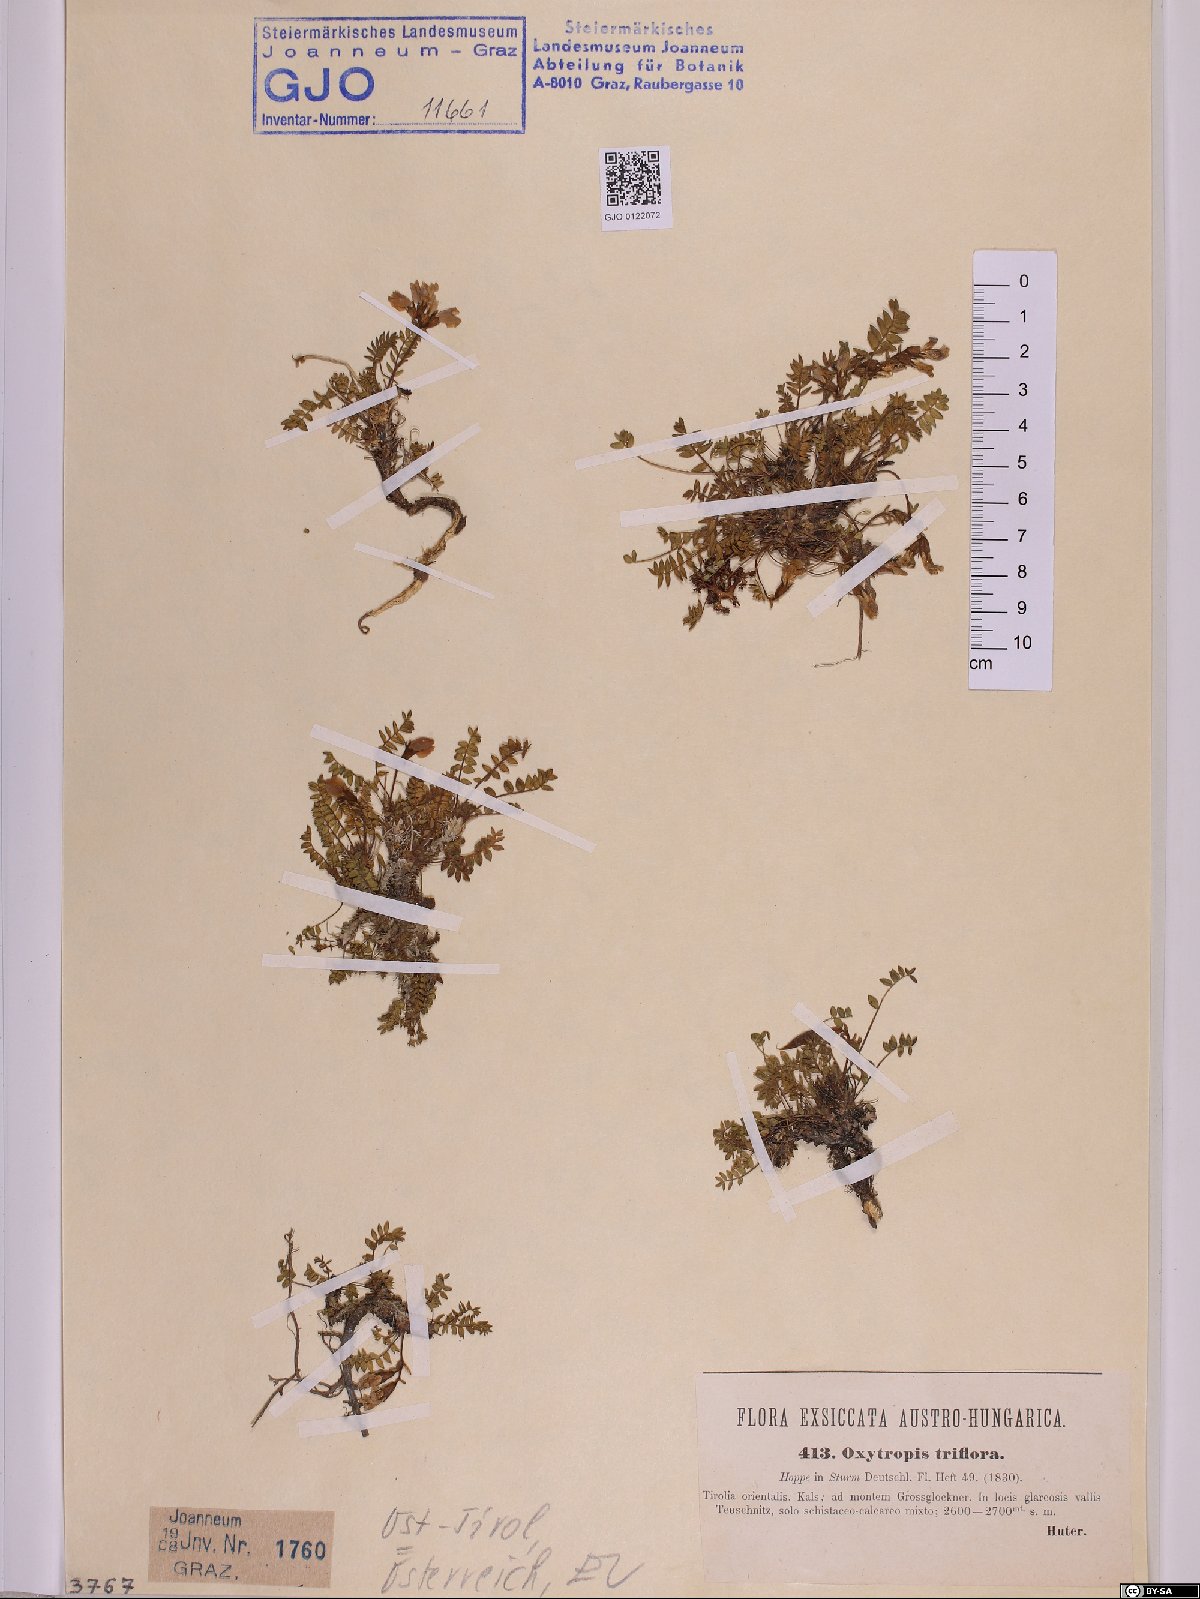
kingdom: Plantae
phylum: Tracheophyta
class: Magnoliopsida
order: Fabales
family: Fabaceae
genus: Oxytropis
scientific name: Oxytropis triflora
